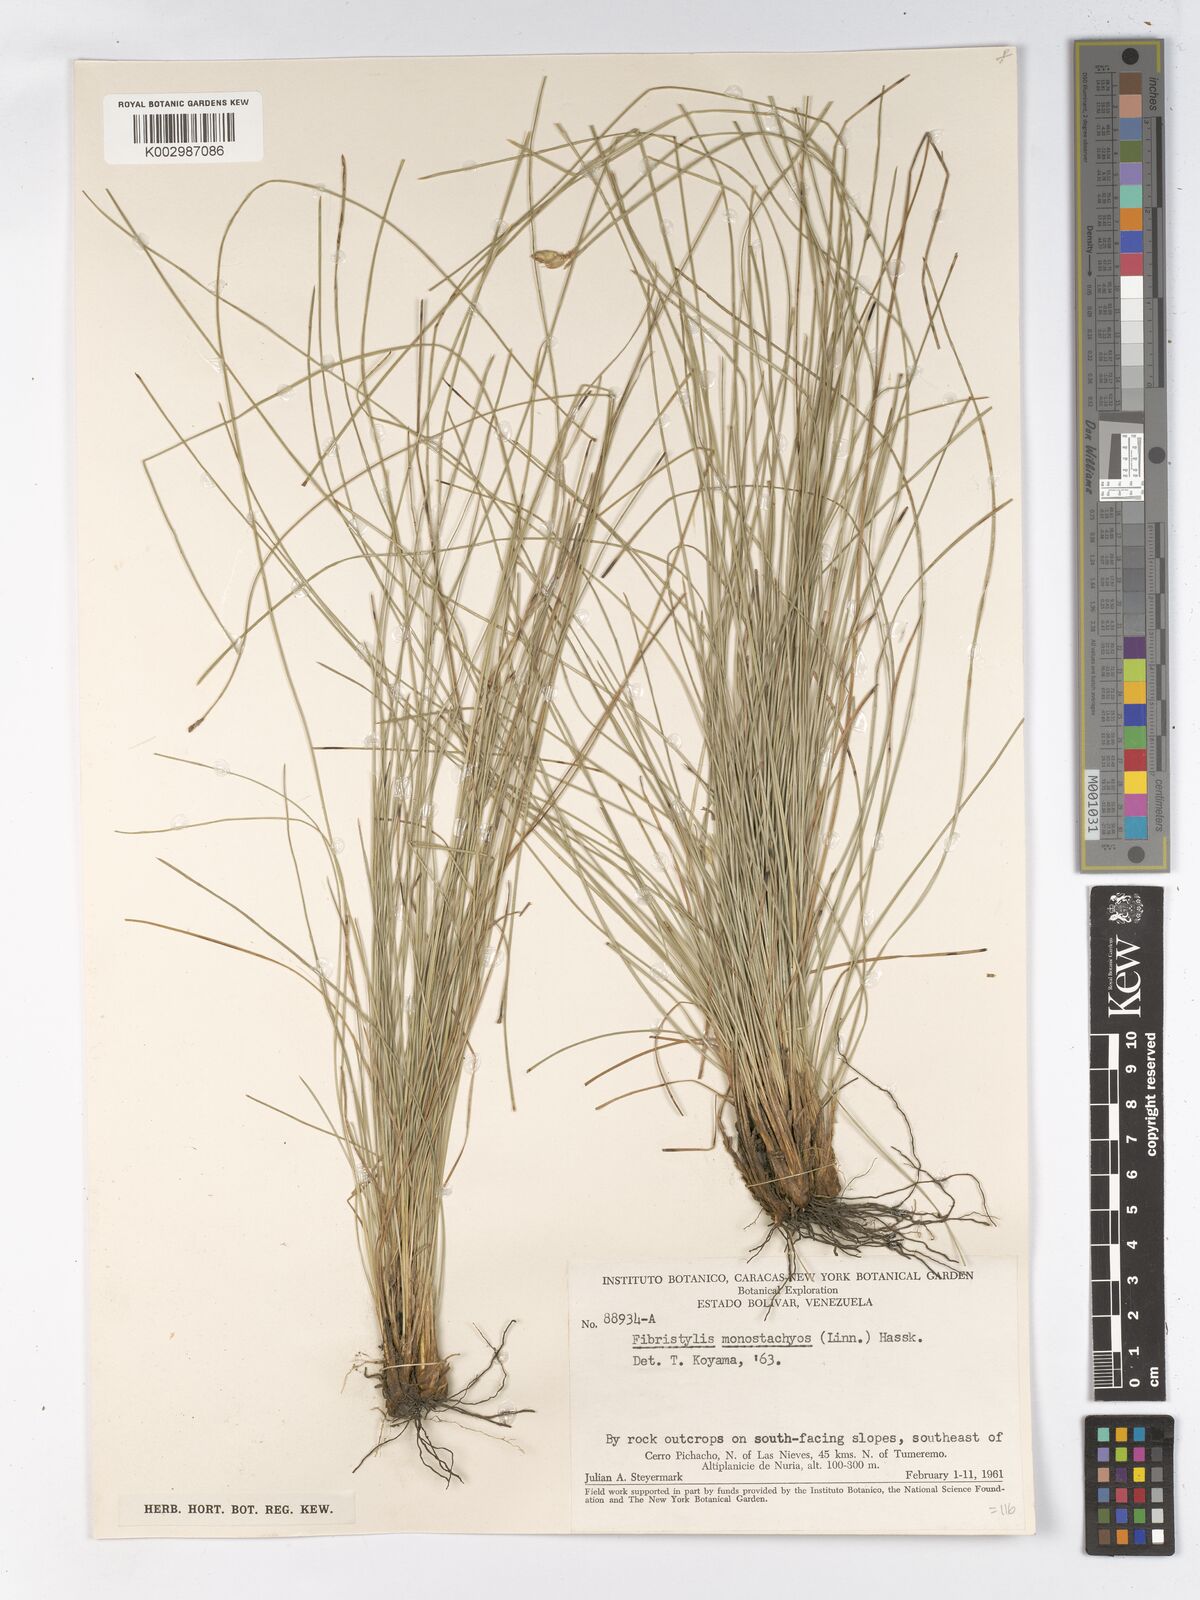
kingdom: Plantae
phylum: Tracheophyta
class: Liliopsida
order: Poales
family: Cyperaceae
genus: Abildgaardia
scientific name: Abildgaardia ovata
